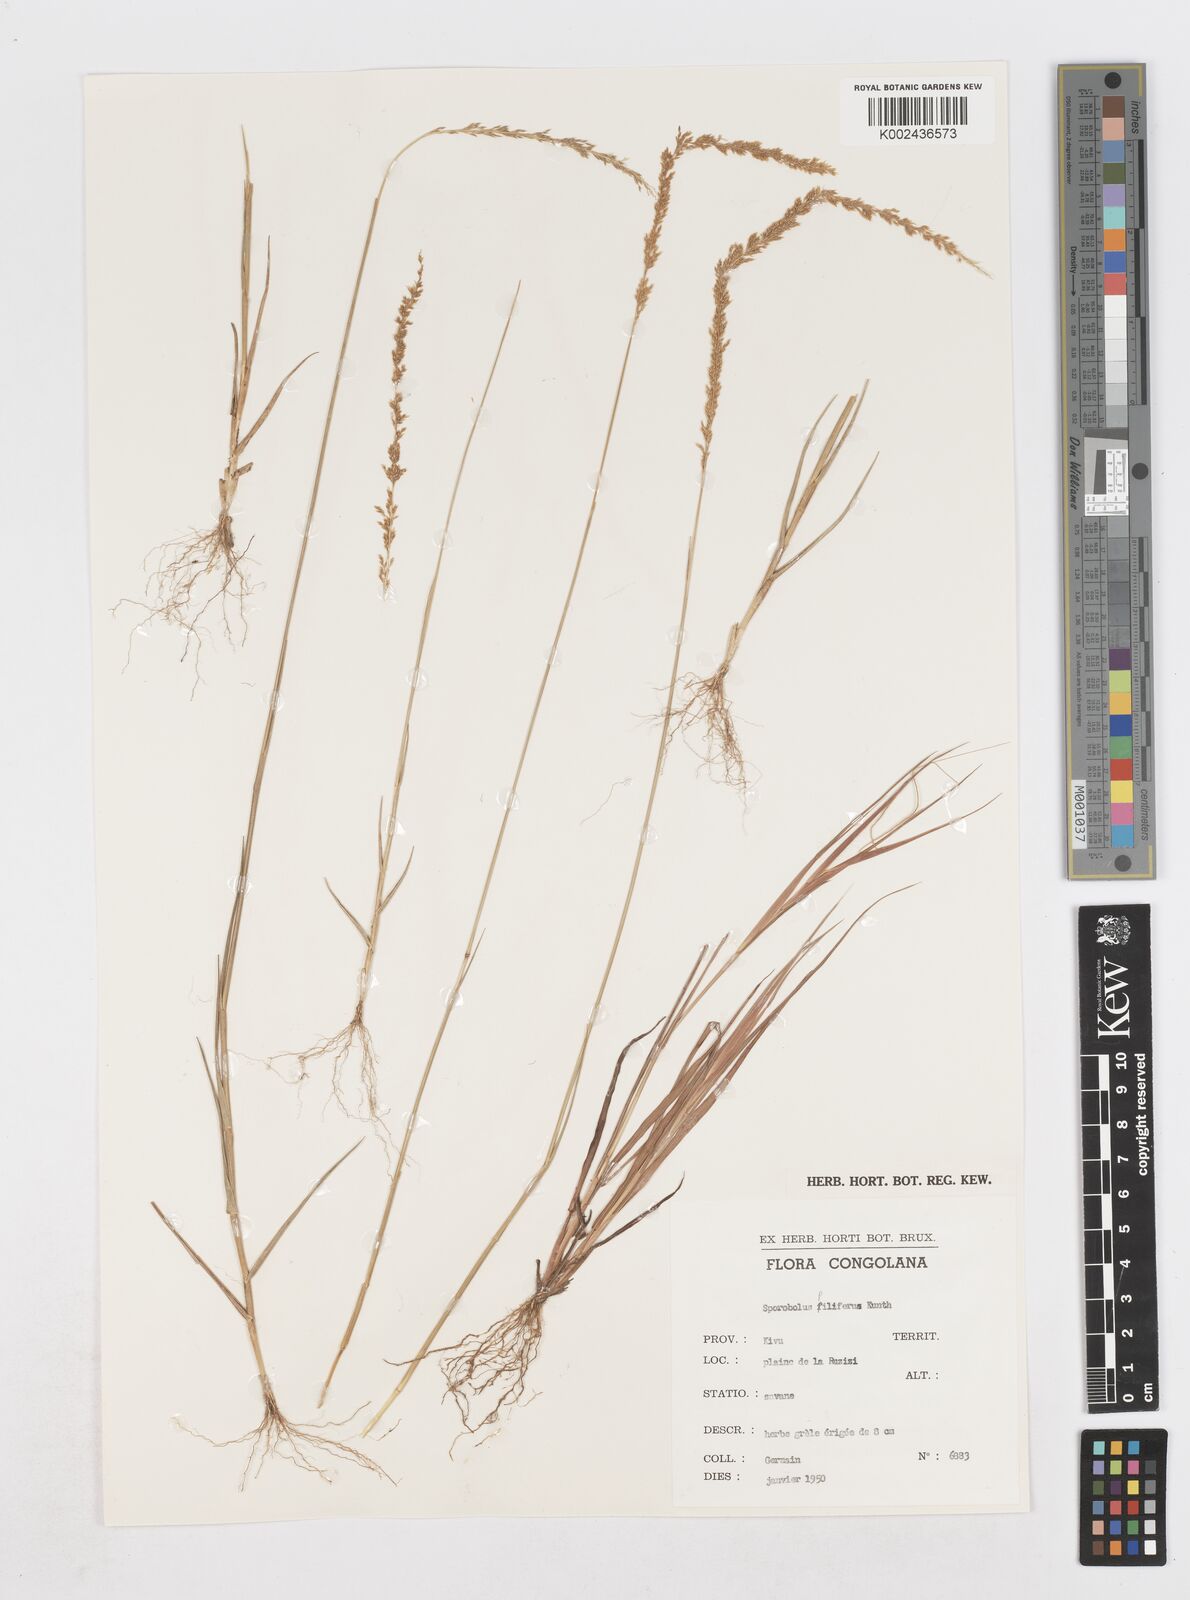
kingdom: Plantae
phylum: Tracheophyta
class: Liliopsida
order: Poales
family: Poaceae
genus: Sporobolus
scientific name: Sporobolus pilifer
